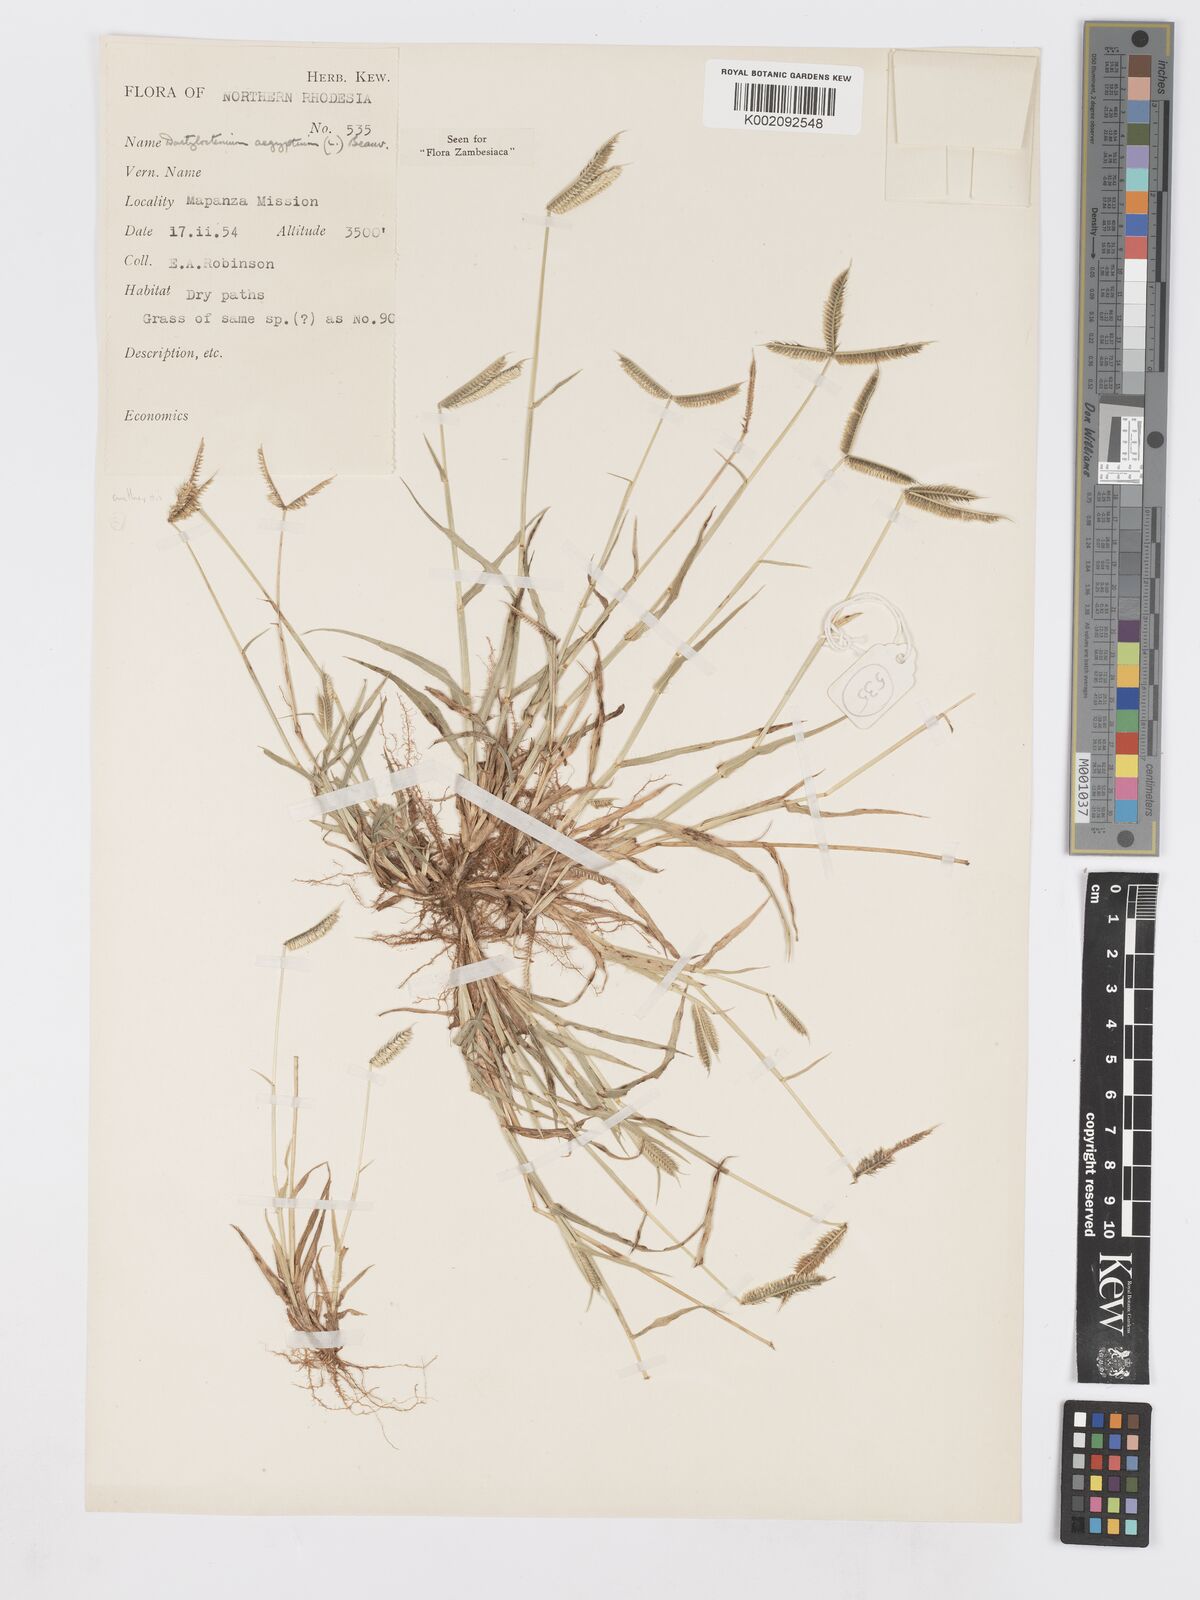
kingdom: Plantae
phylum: Tracheophyta
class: Liliopsida
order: Poales
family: Poaceae
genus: Dactyloctenium
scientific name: Dactyloctenium aegyptium
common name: Egyptian grass
